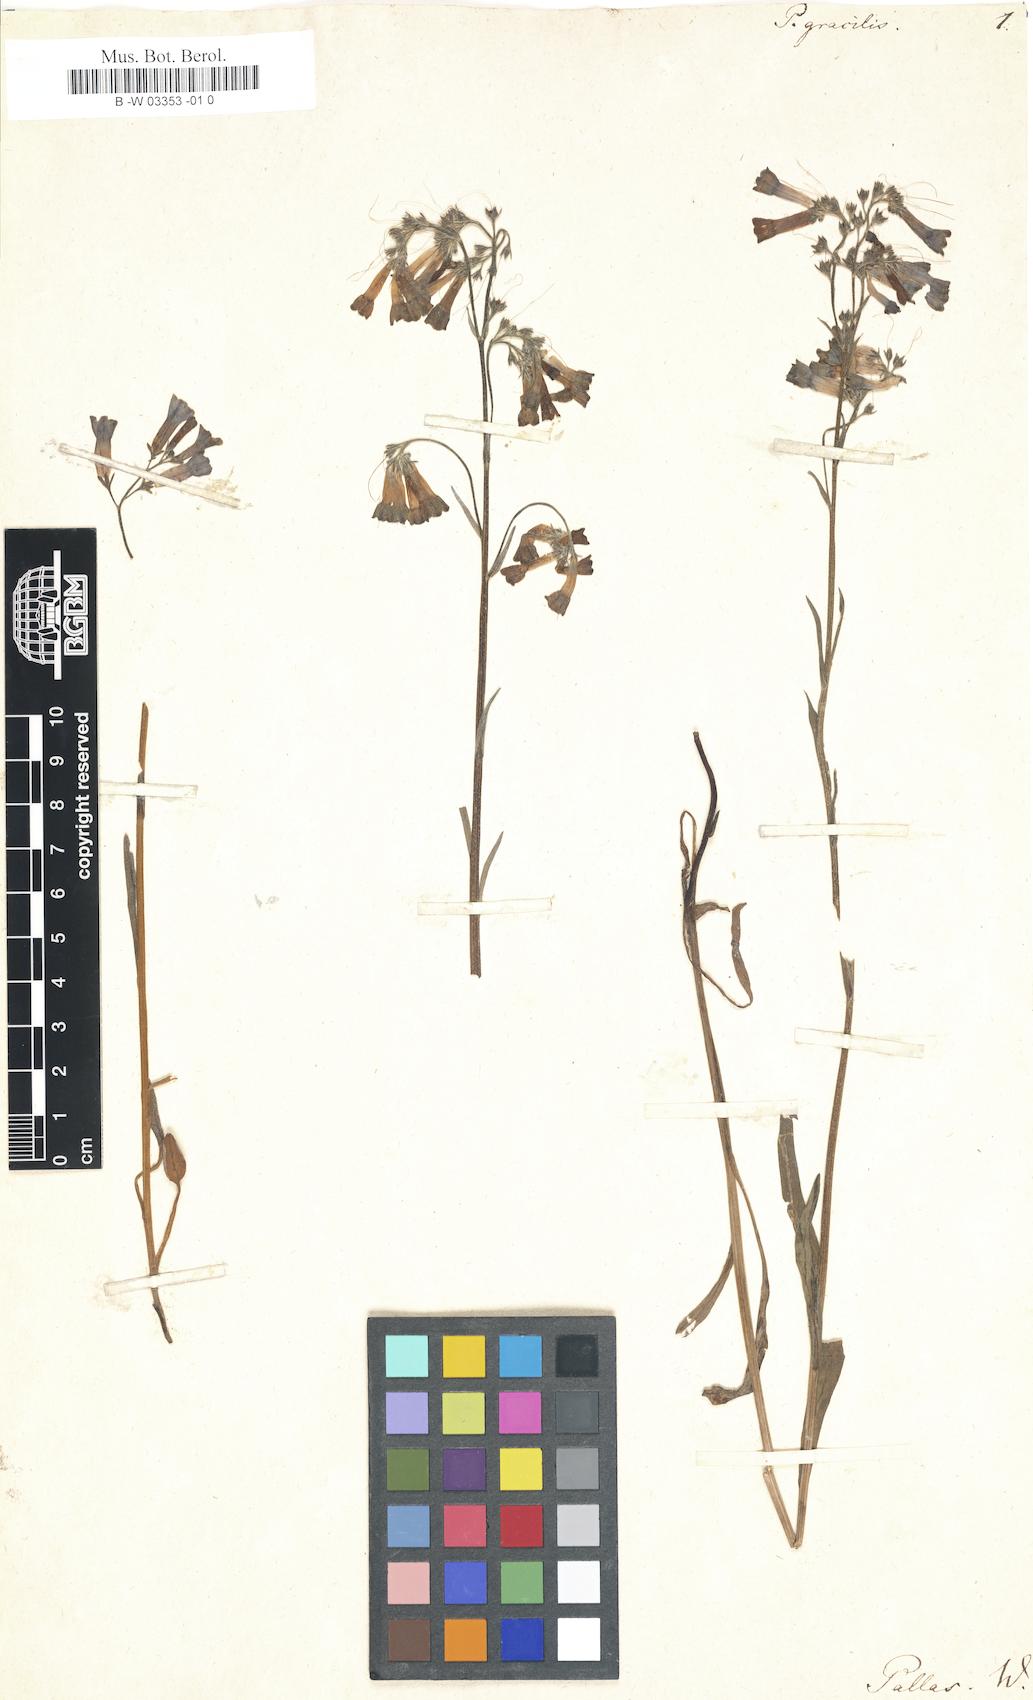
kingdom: Plantae
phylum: Tracheophyta
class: Magnoliopsida
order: Boraginales
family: Boraginaceae
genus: Mertensia
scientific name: Mertensia davurica
